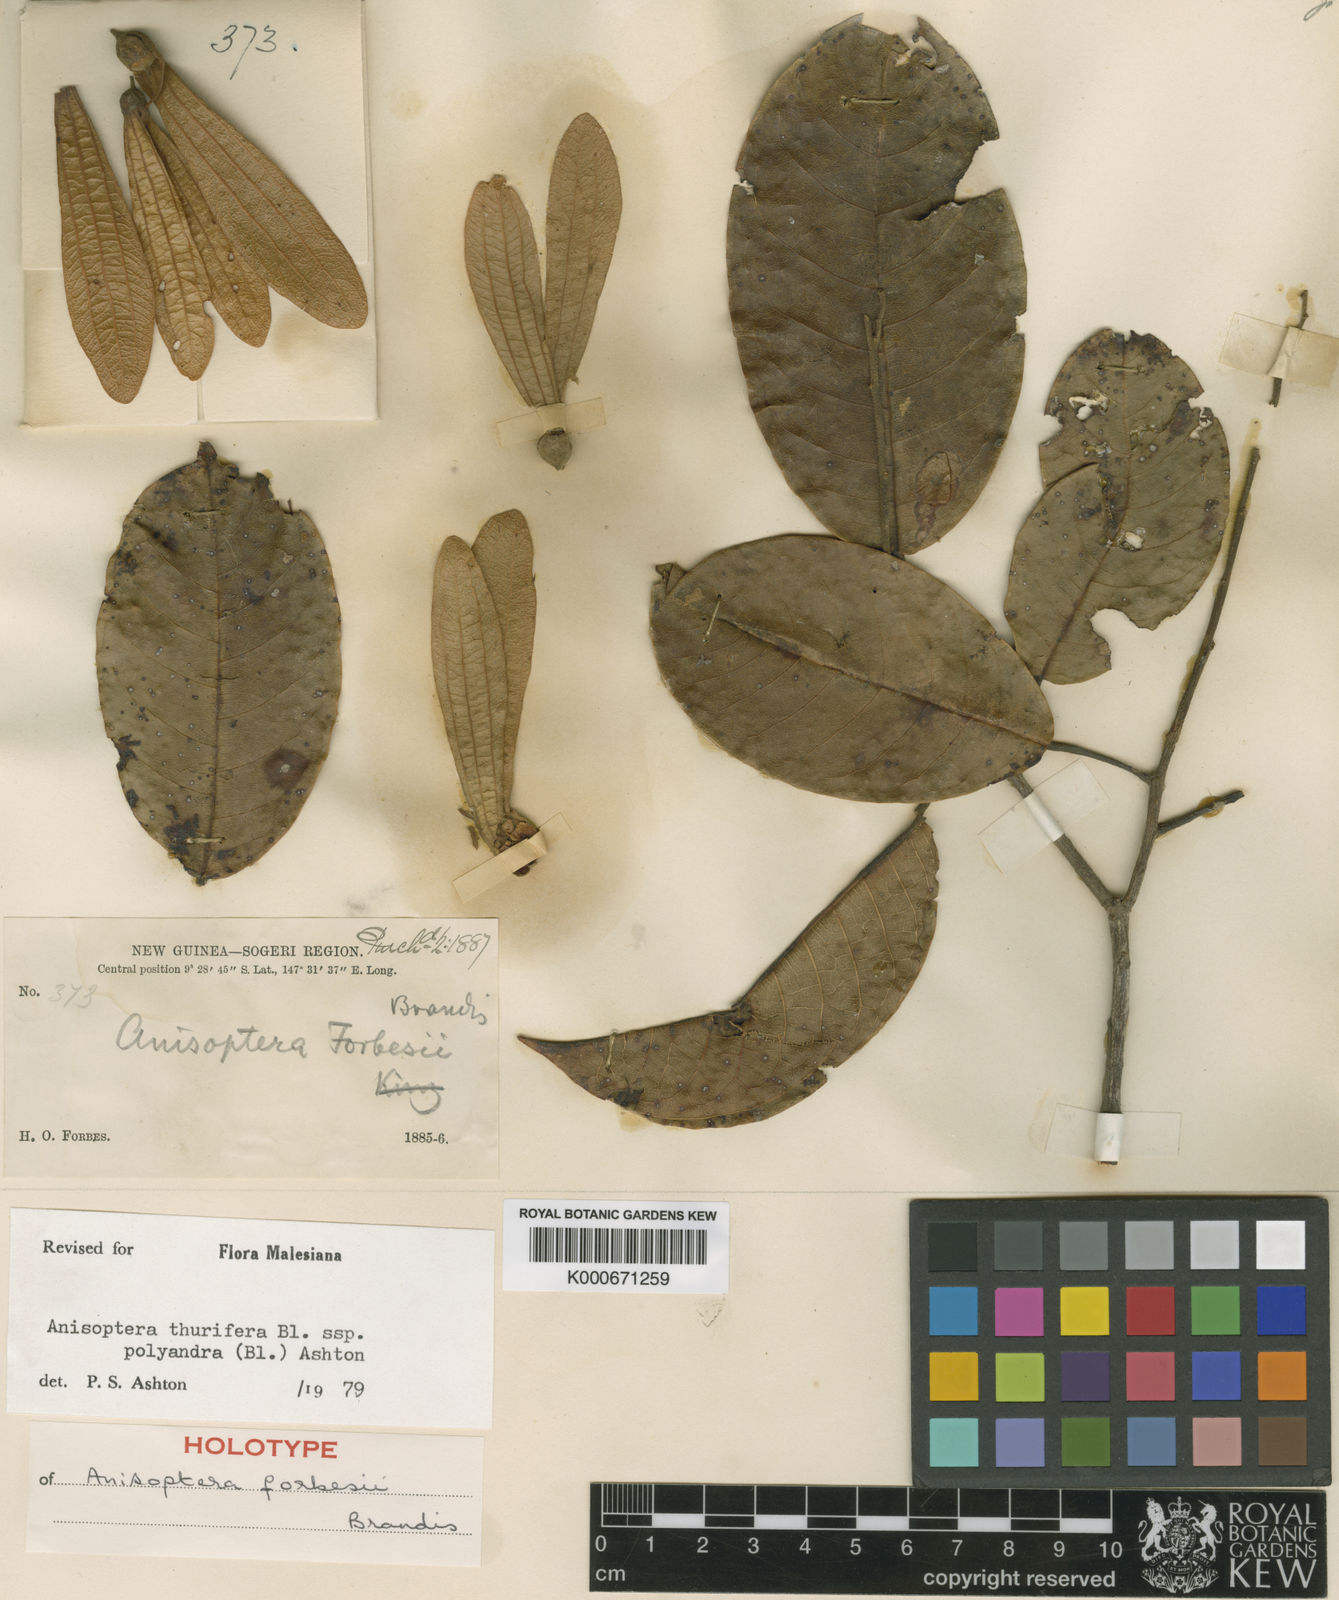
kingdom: Plantae
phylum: Tracheophyta
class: Magnoliopsida
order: Malvales
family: Dipterocarpaceae
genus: Anisoptera
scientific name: Anisoptera thurifera
